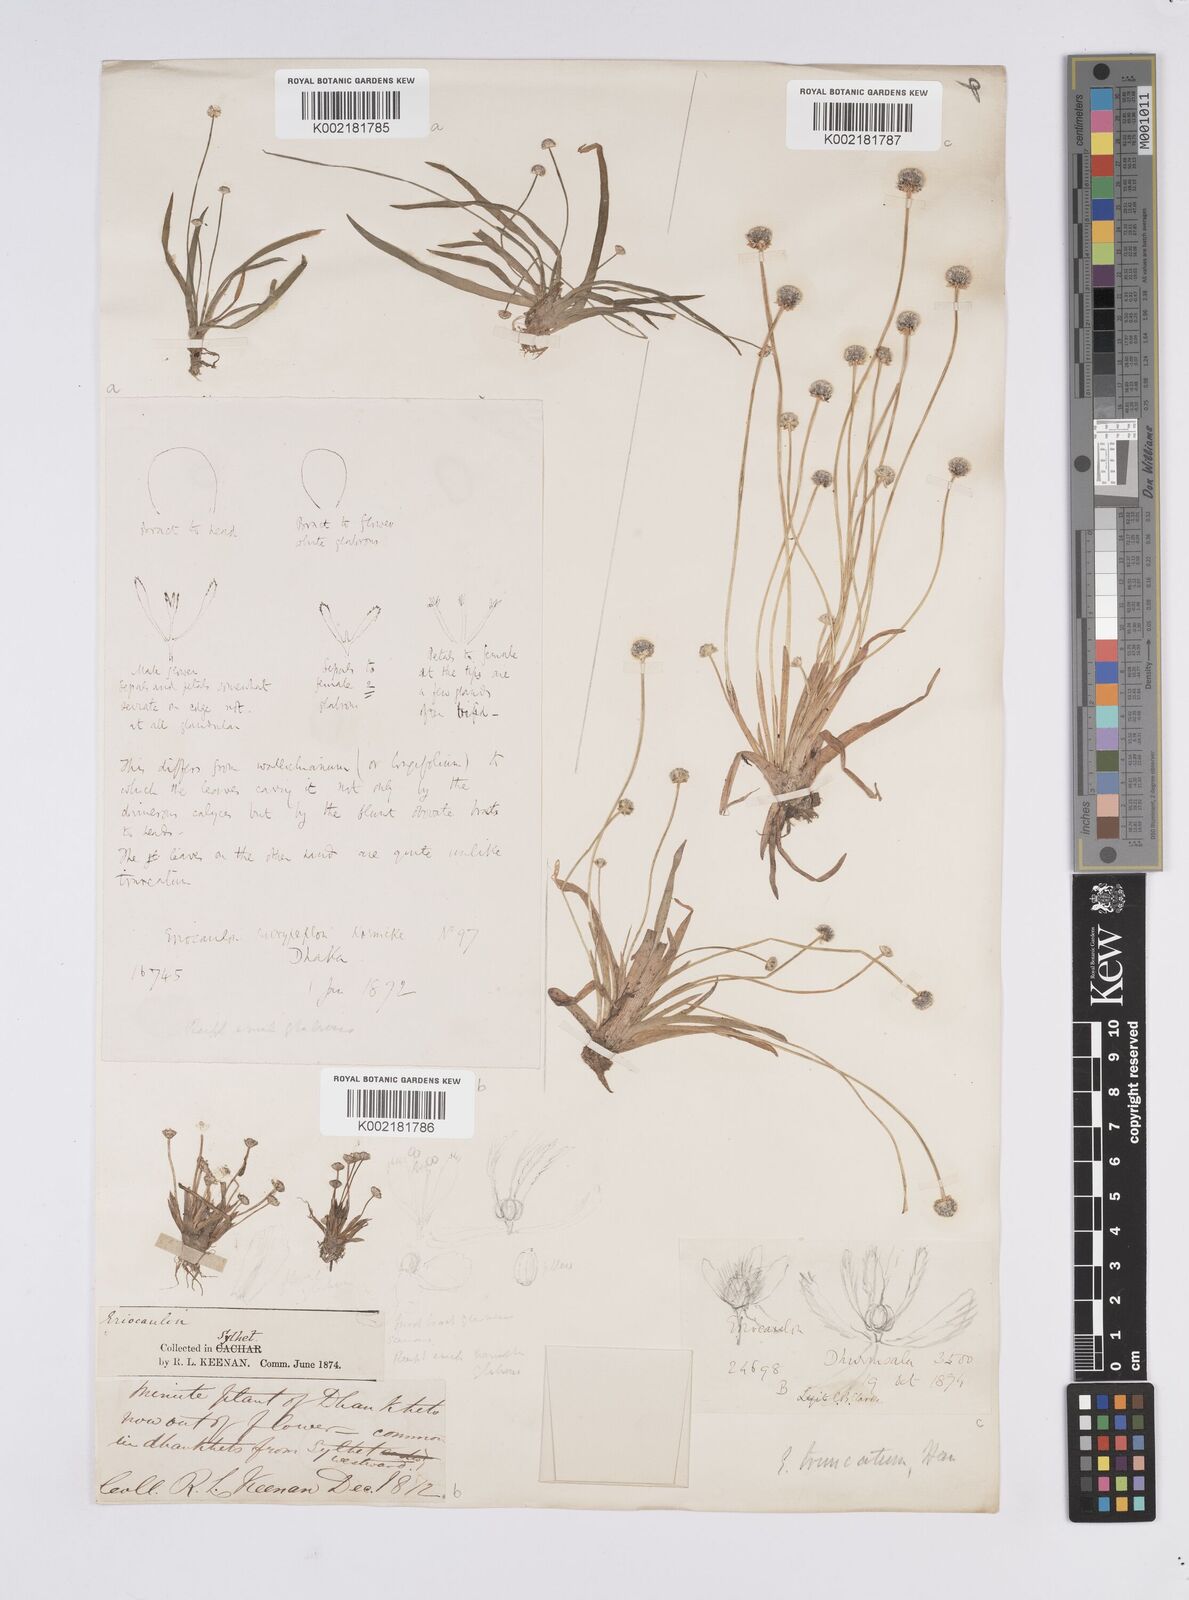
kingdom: Plantae
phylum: Tracheophyta
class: Liliopsida
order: Poales
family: Eriocaulaceae
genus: Eriocaulon
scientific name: Eriocaulon truncatum
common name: Short pipe-wort
